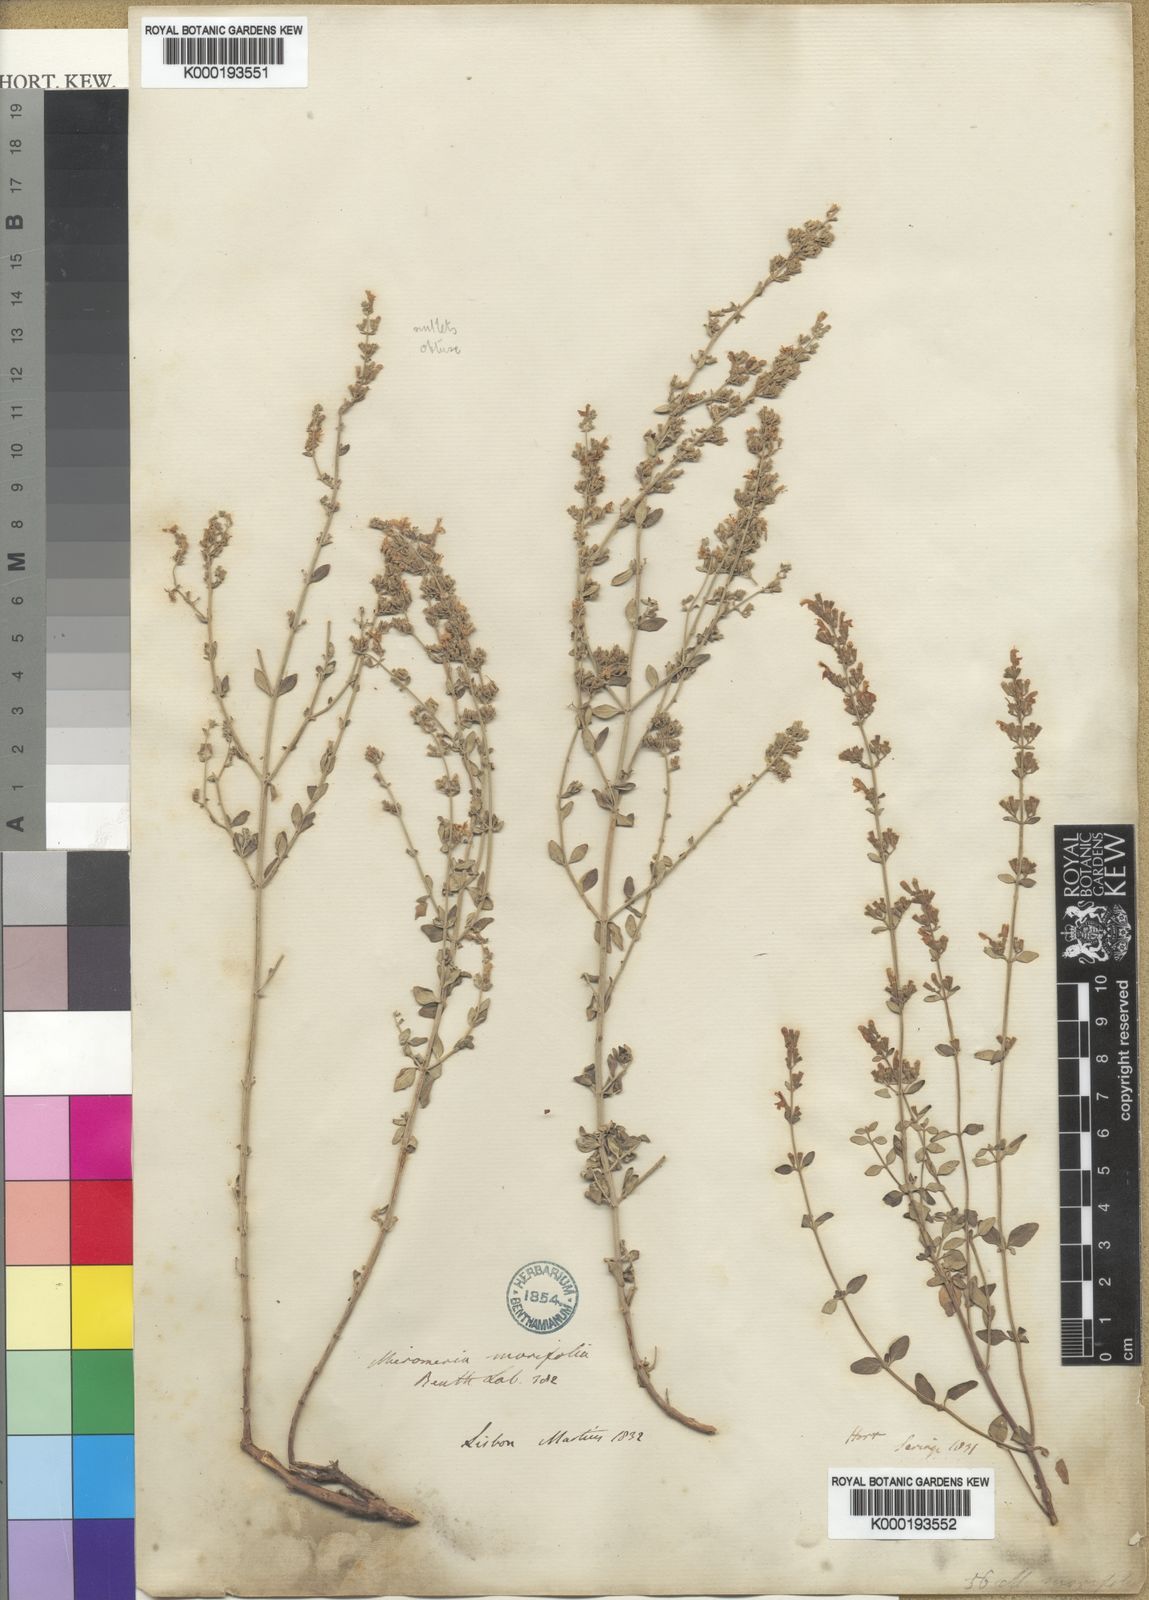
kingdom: Plantae
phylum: Tracheophyta
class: Magnoliopsida
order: Lamiales
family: Lamiaceae
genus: Clinopodium
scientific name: Clinopodium serpyllifolium
